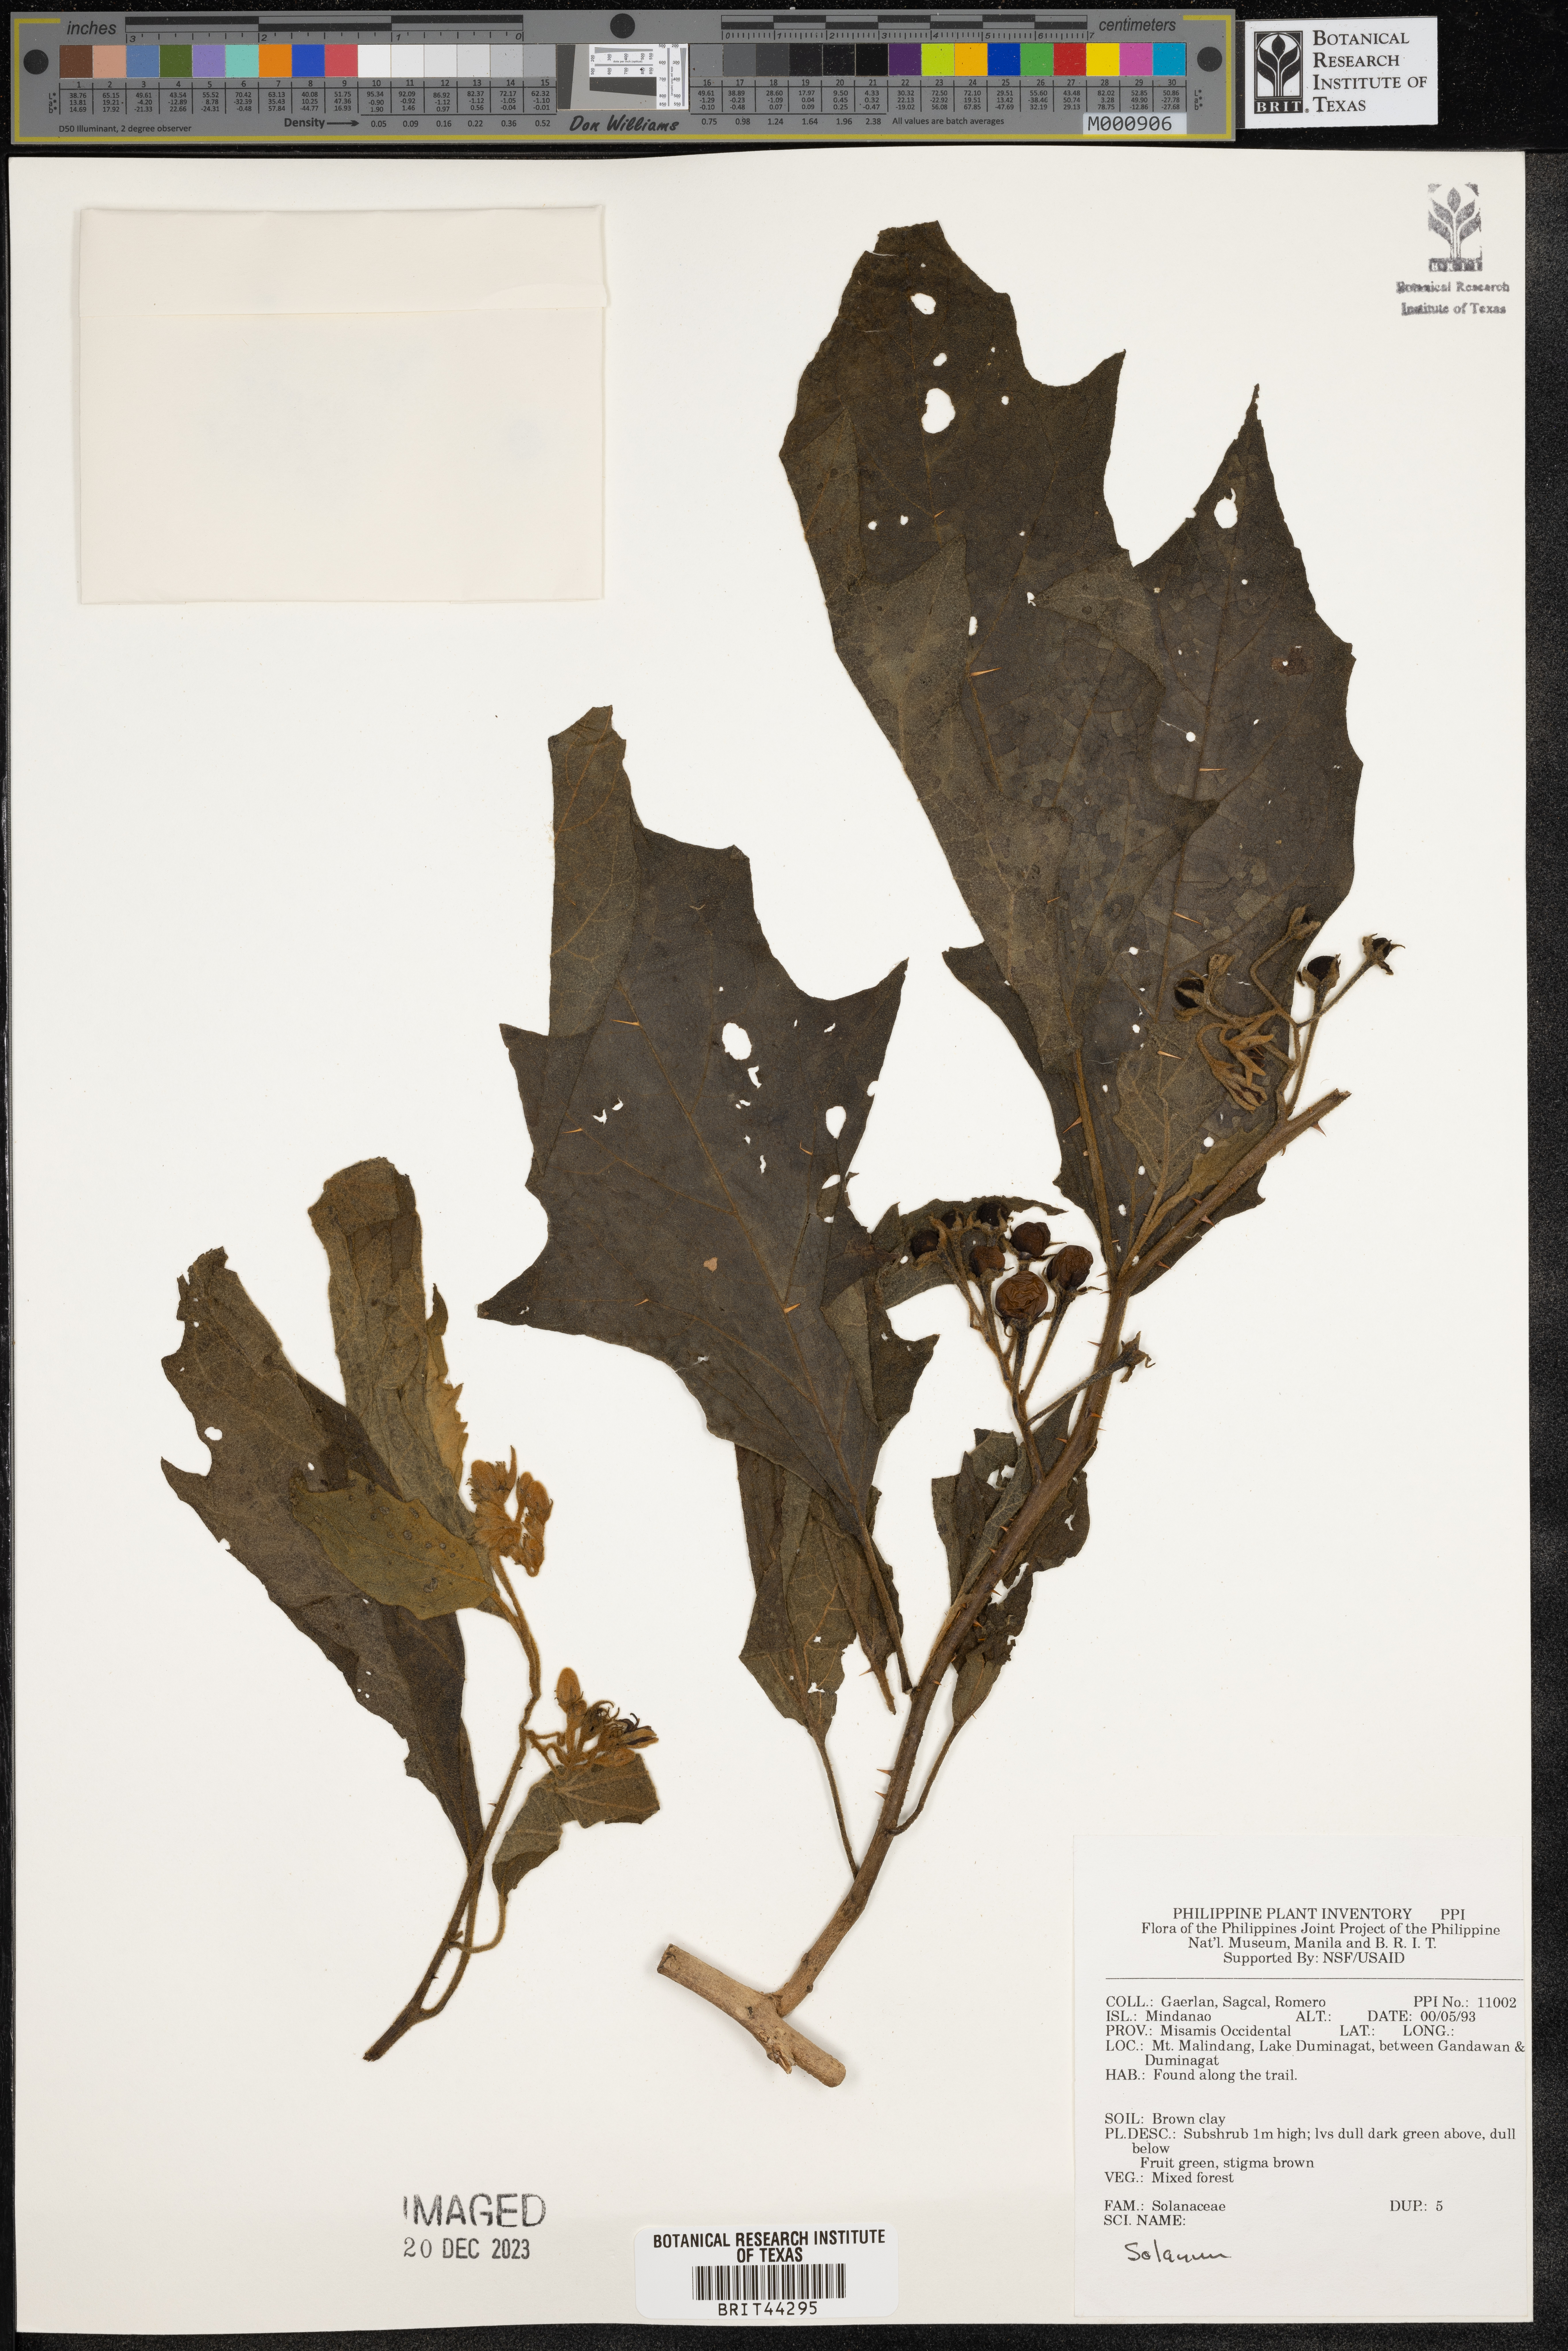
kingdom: Plantae
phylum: Tracheophyta
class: Magnoliopsida
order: Solanales
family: Solanaceae
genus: Solanum
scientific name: Solanum
